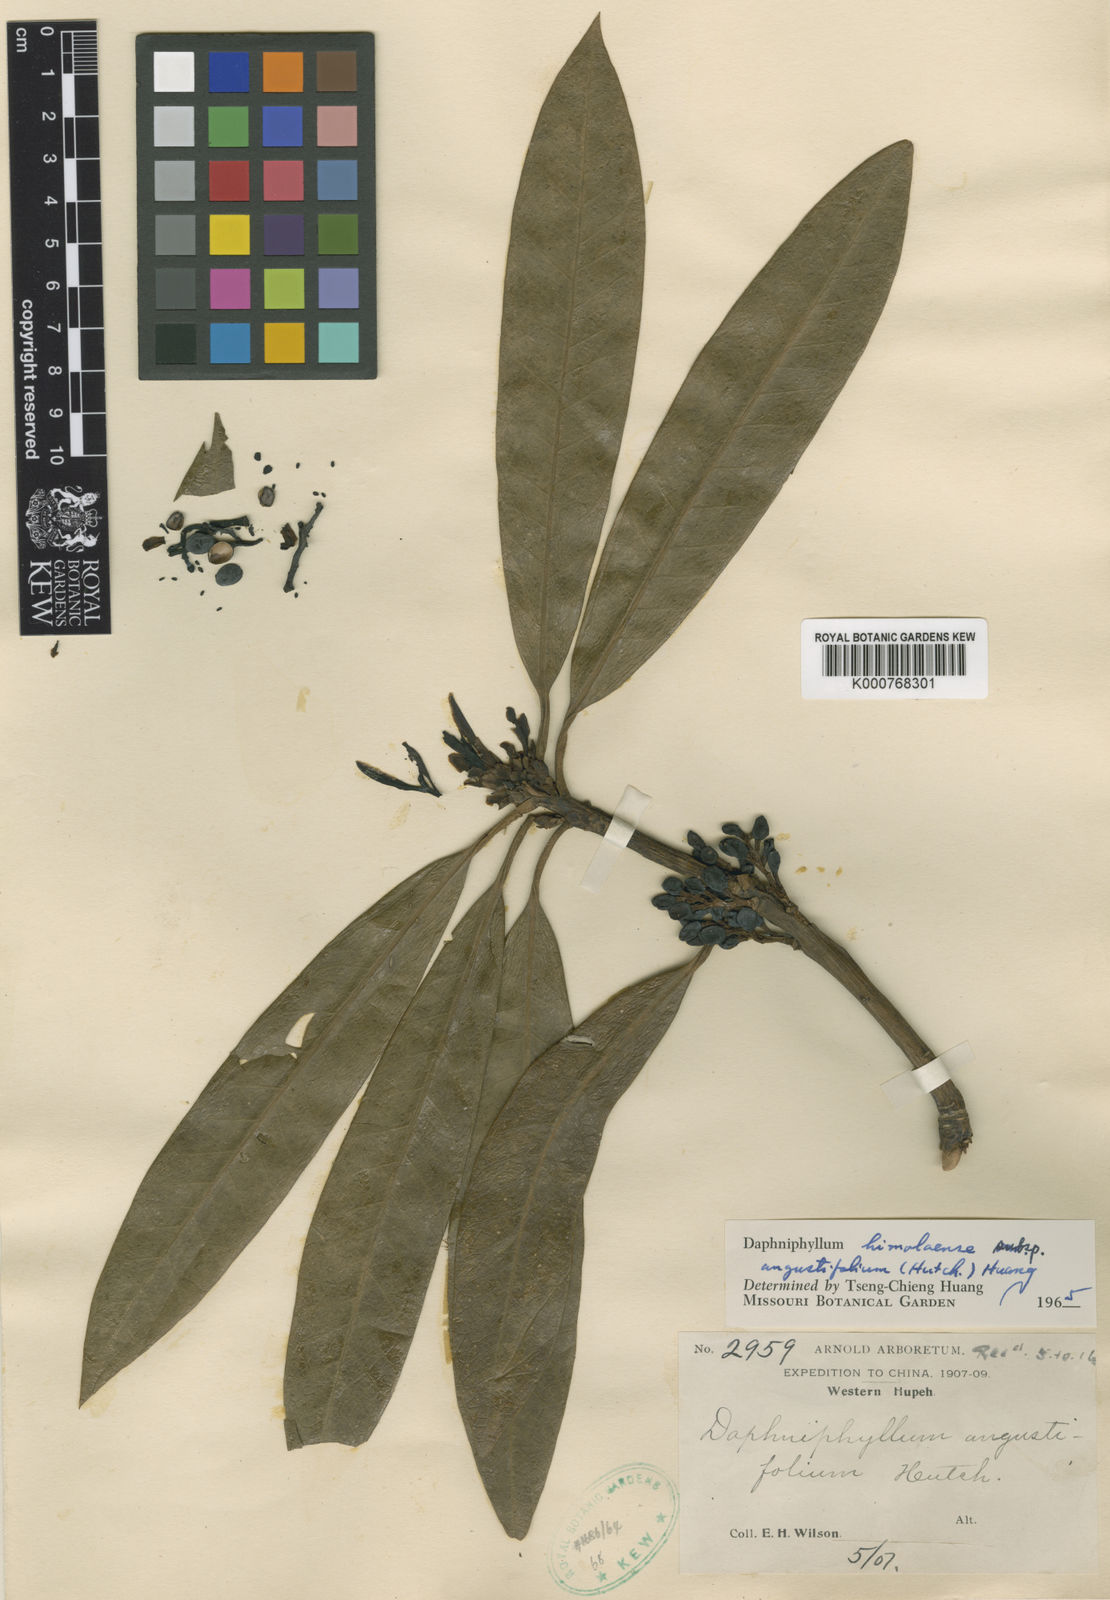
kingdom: Plantae
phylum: Tracheophyta
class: Magnoliopsida
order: Saxifragales
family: Daphniphyllaceae
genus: Daphniphyllum
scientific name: Daphniphyllum
